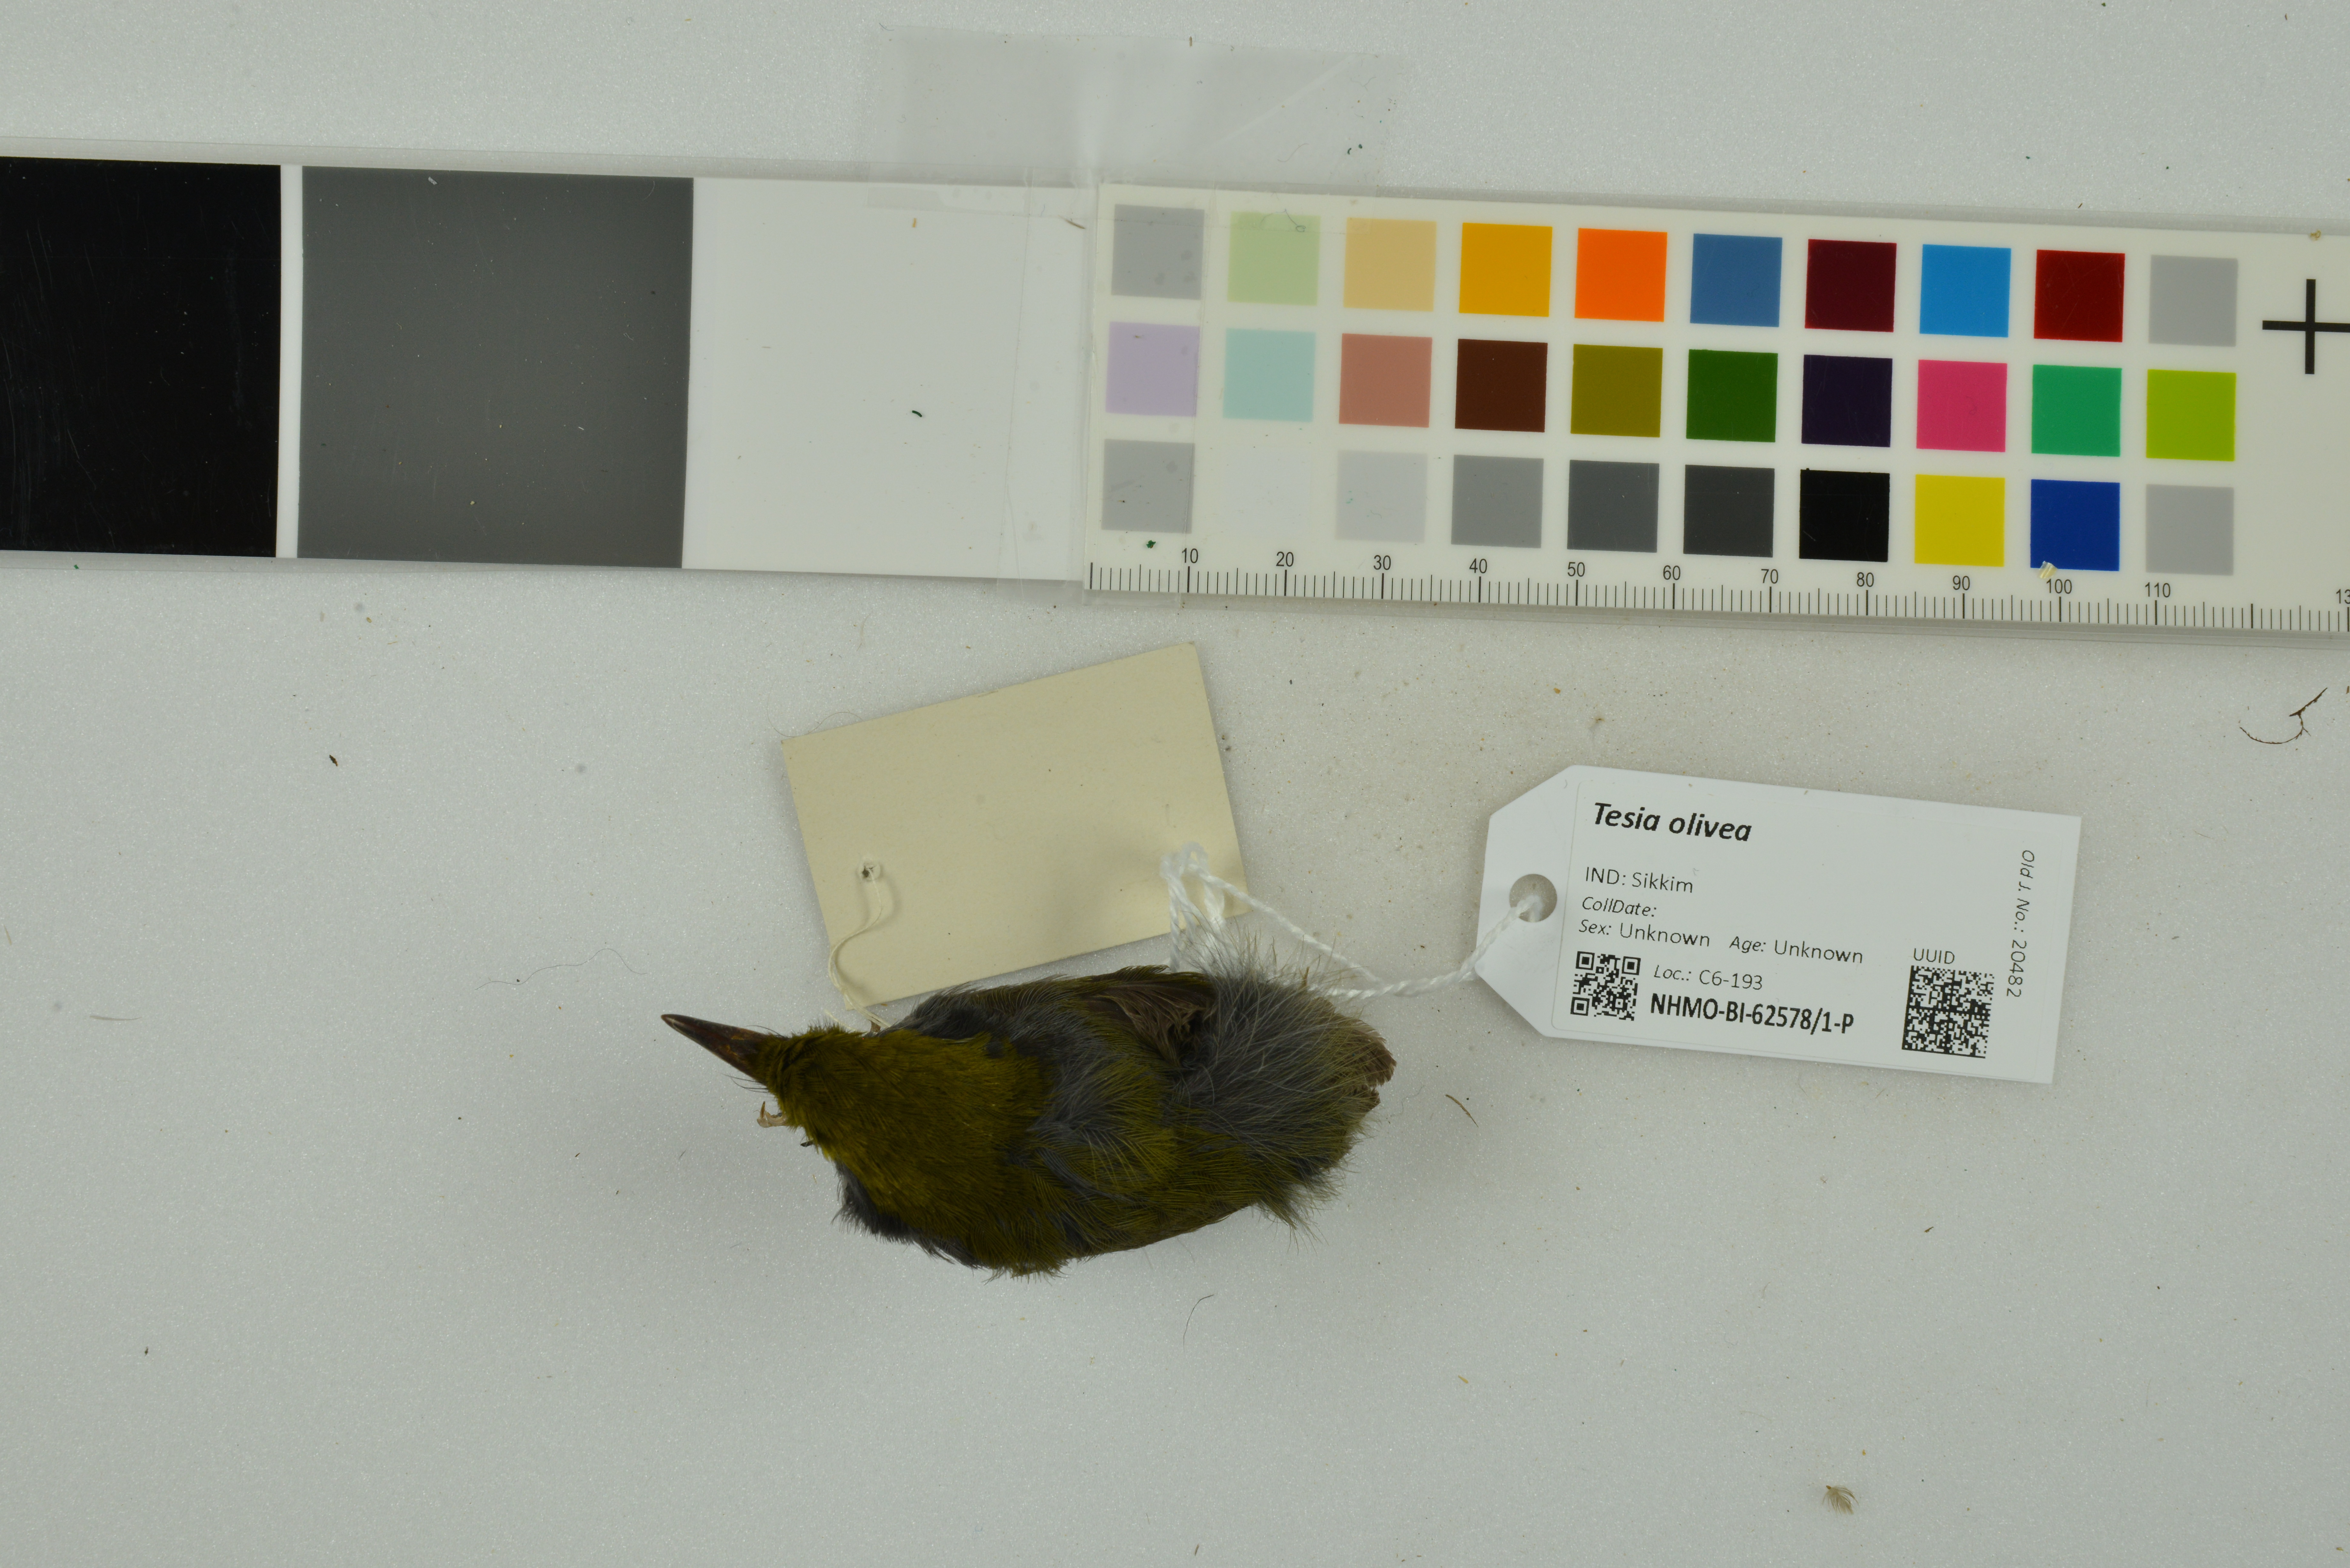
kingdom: Animalia
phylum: Chordata
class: Aves
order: Passeriformes
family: Cettiidae
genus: Tesia
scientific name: Tesia olivea
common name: Slaty-bellied tesia
